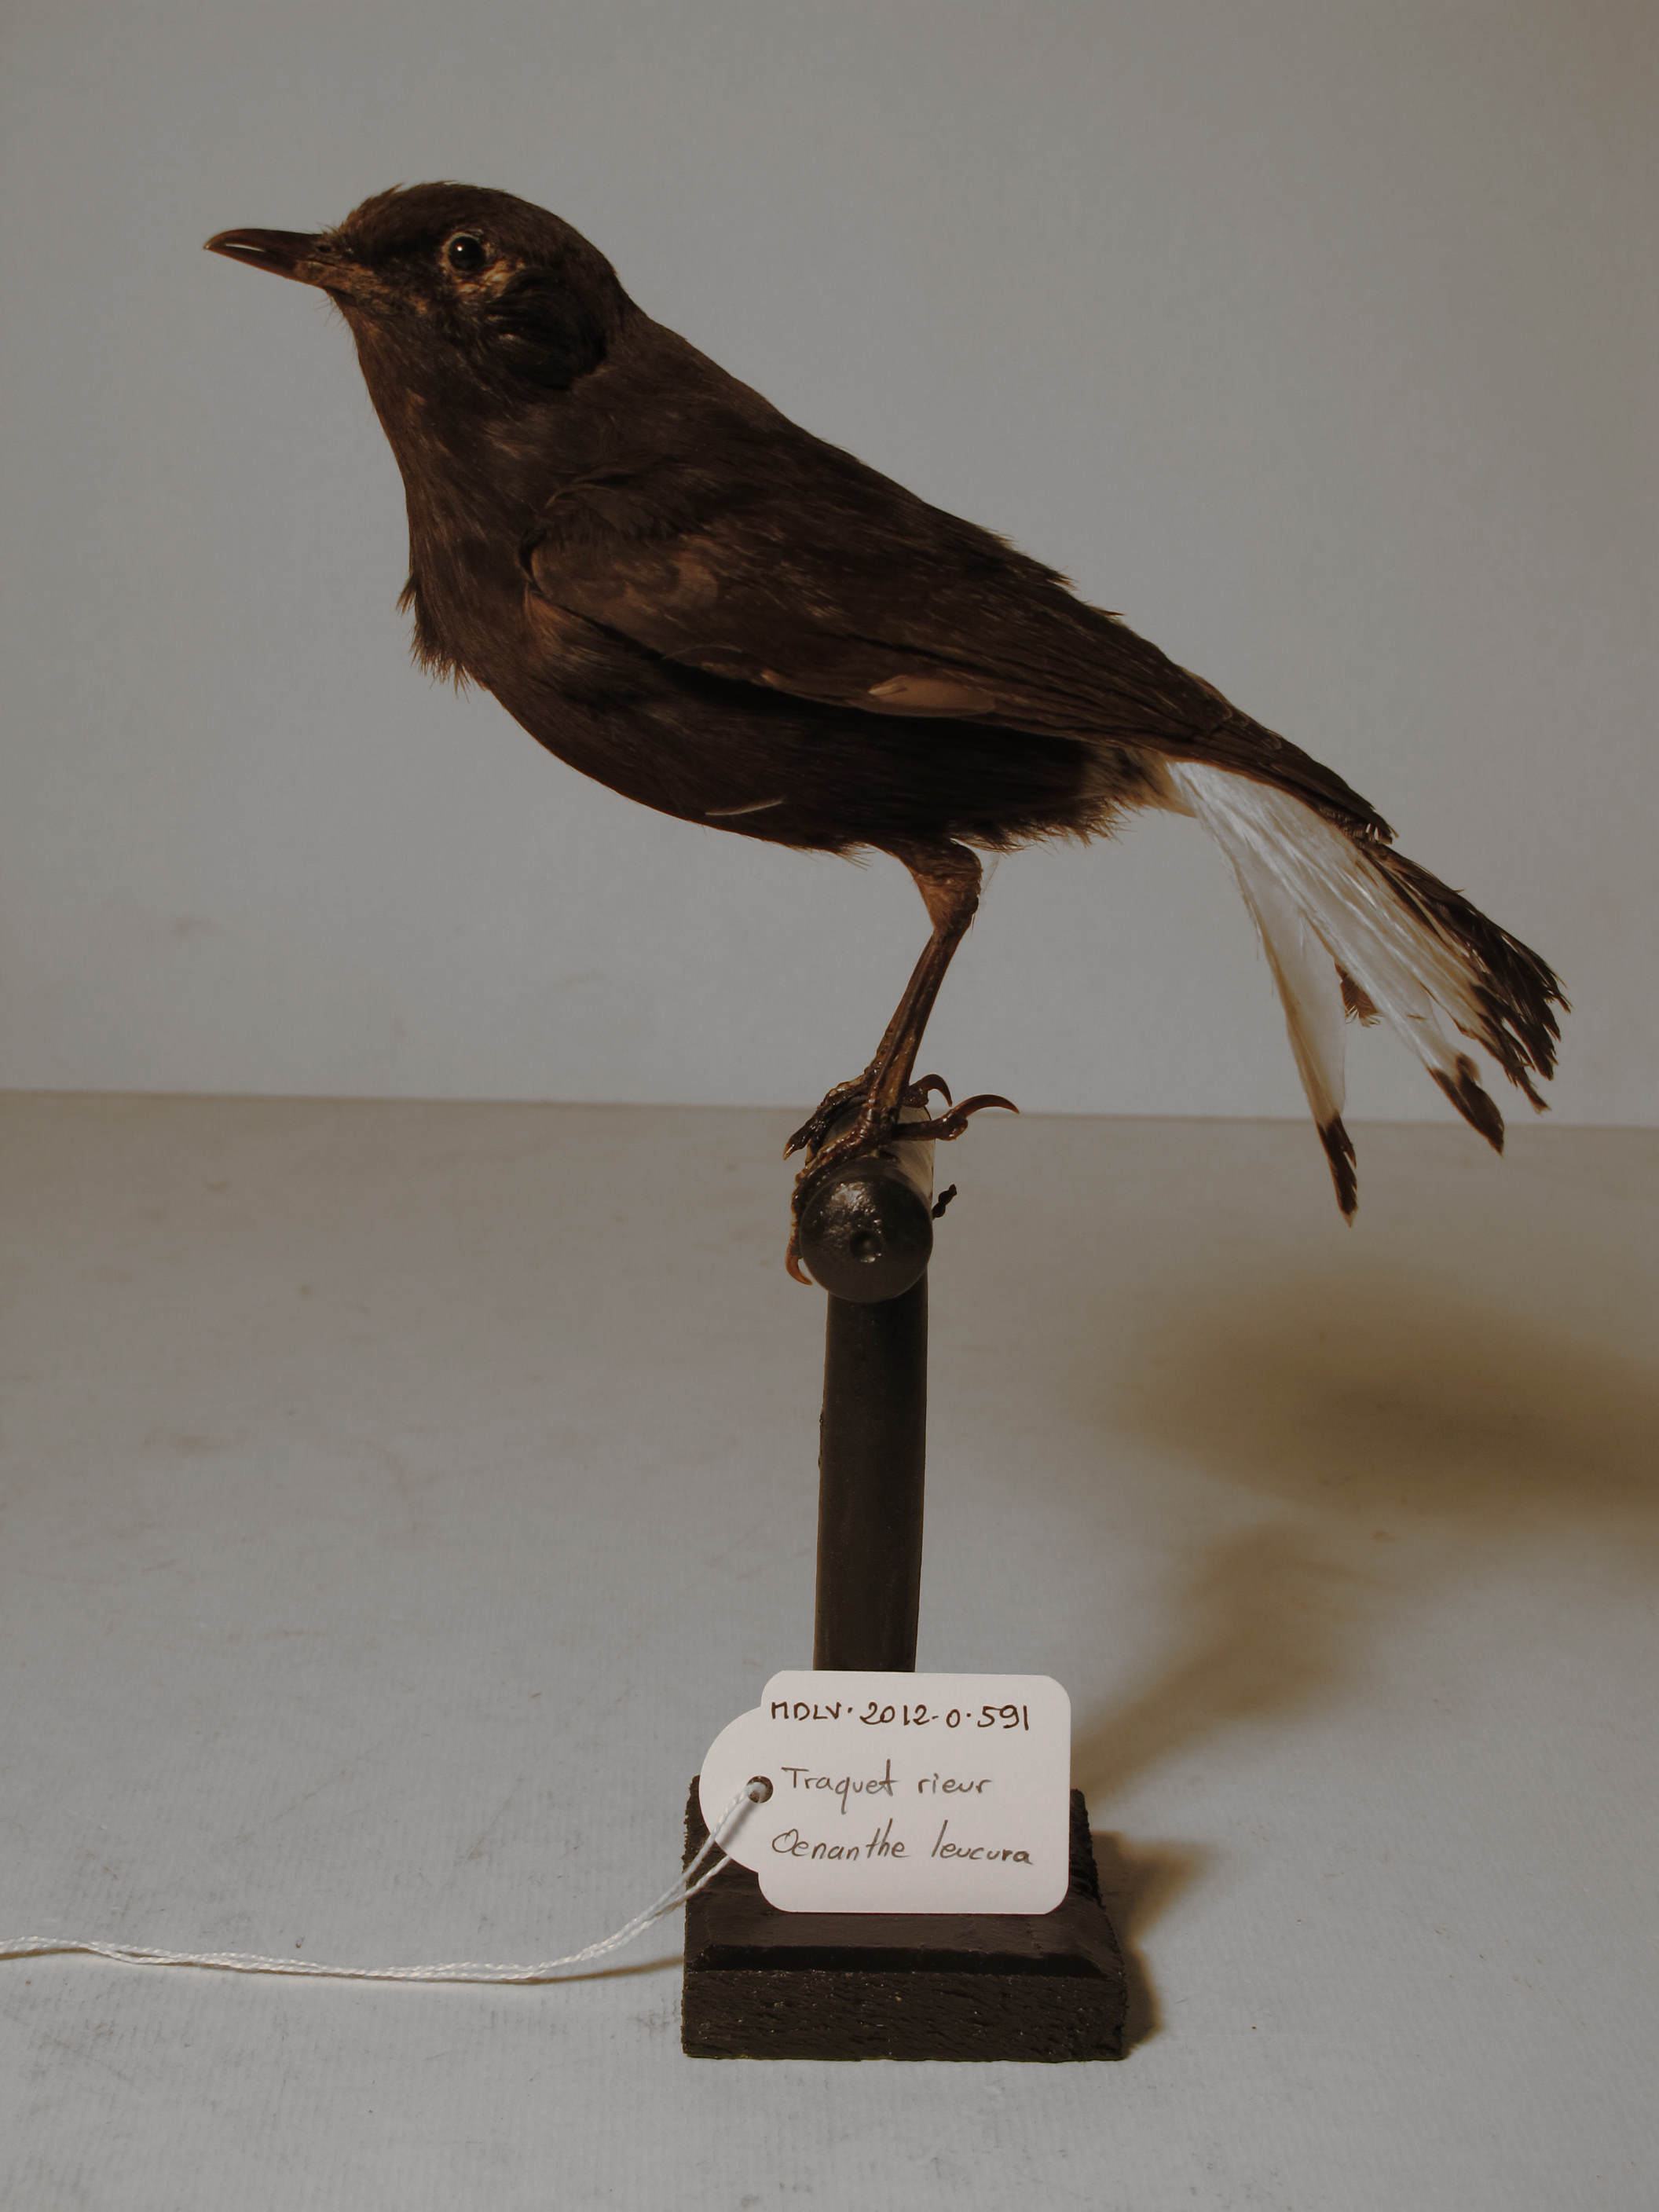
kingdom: Animalia
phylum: Chordata
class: Aves
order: Passeriformes
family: Muscicapidae
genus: Oenanthe
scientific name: Oenanthe leucura
